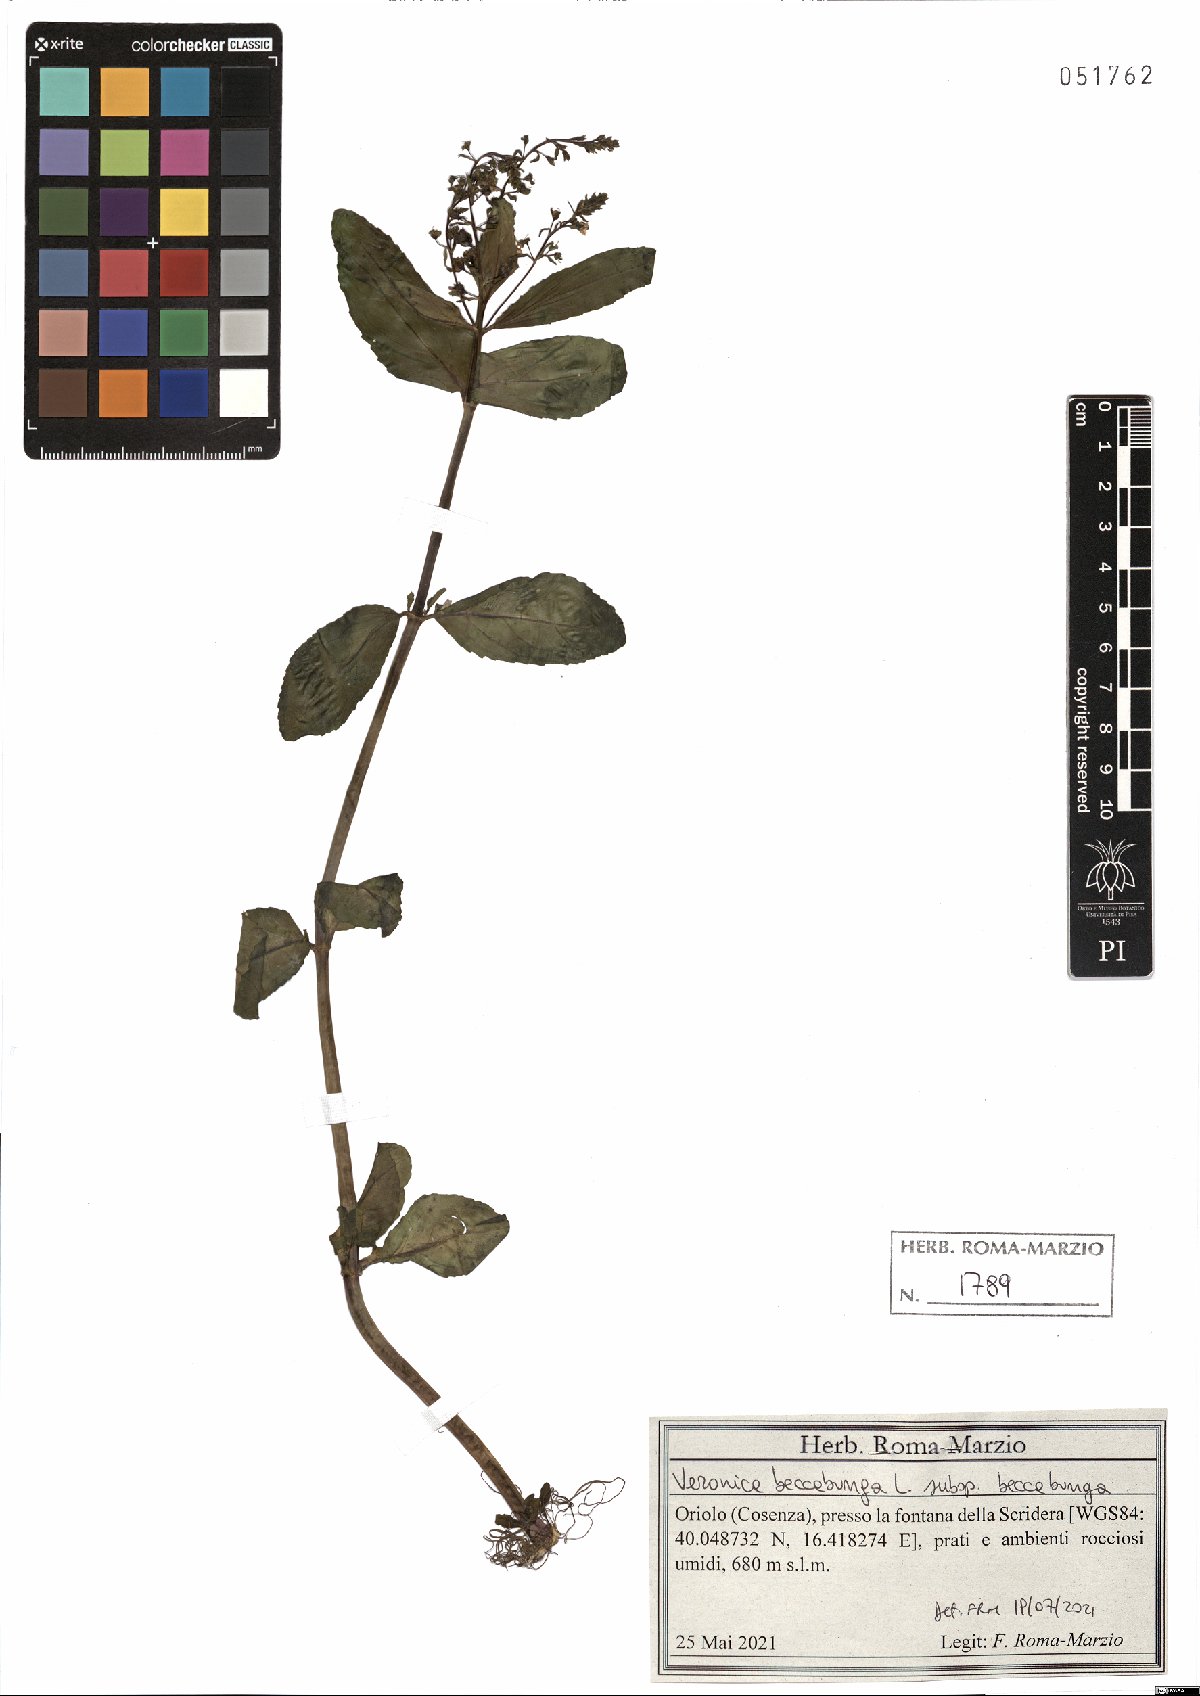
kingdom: Plantae
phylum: Tracheophyta
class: Magnoliopsida
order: Lamiales
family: Plantaginaceae
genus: Veronica
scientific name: Veronica beccabunga
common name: Brooklime
